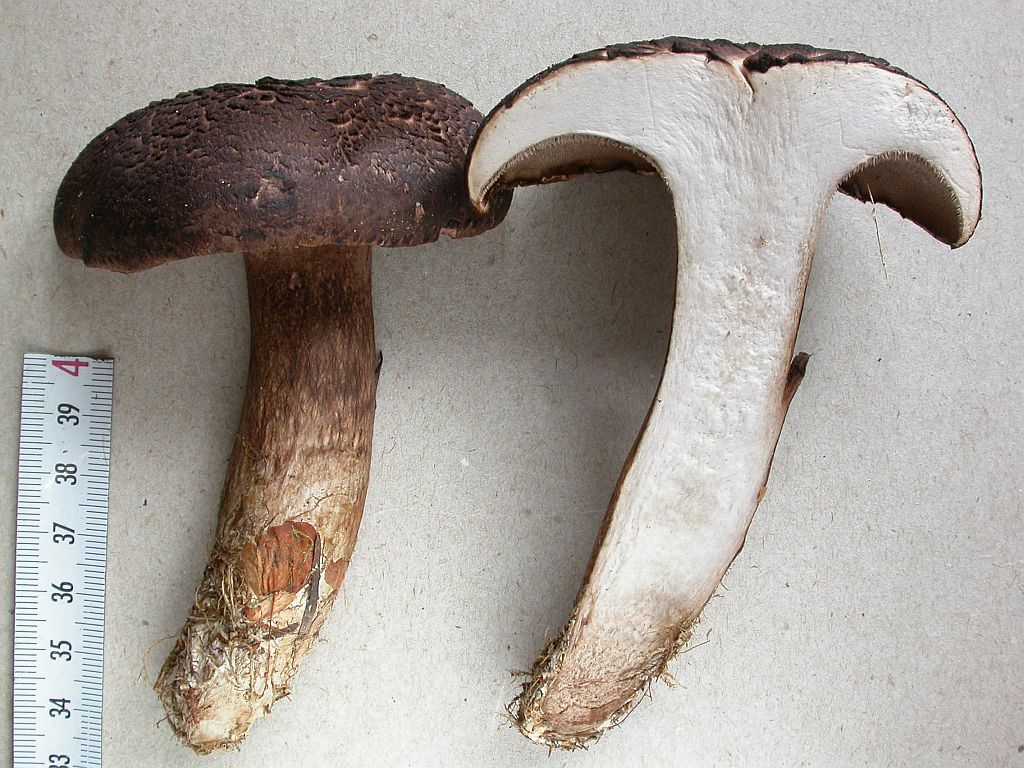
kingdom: Fungi
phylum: Basidiomycota
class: Agaricomycetes
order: Thelephorales
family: Bankeraceae
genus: Sarcodon
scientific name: Sarcodon squamosus
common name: småskællet kødpigsvamp
